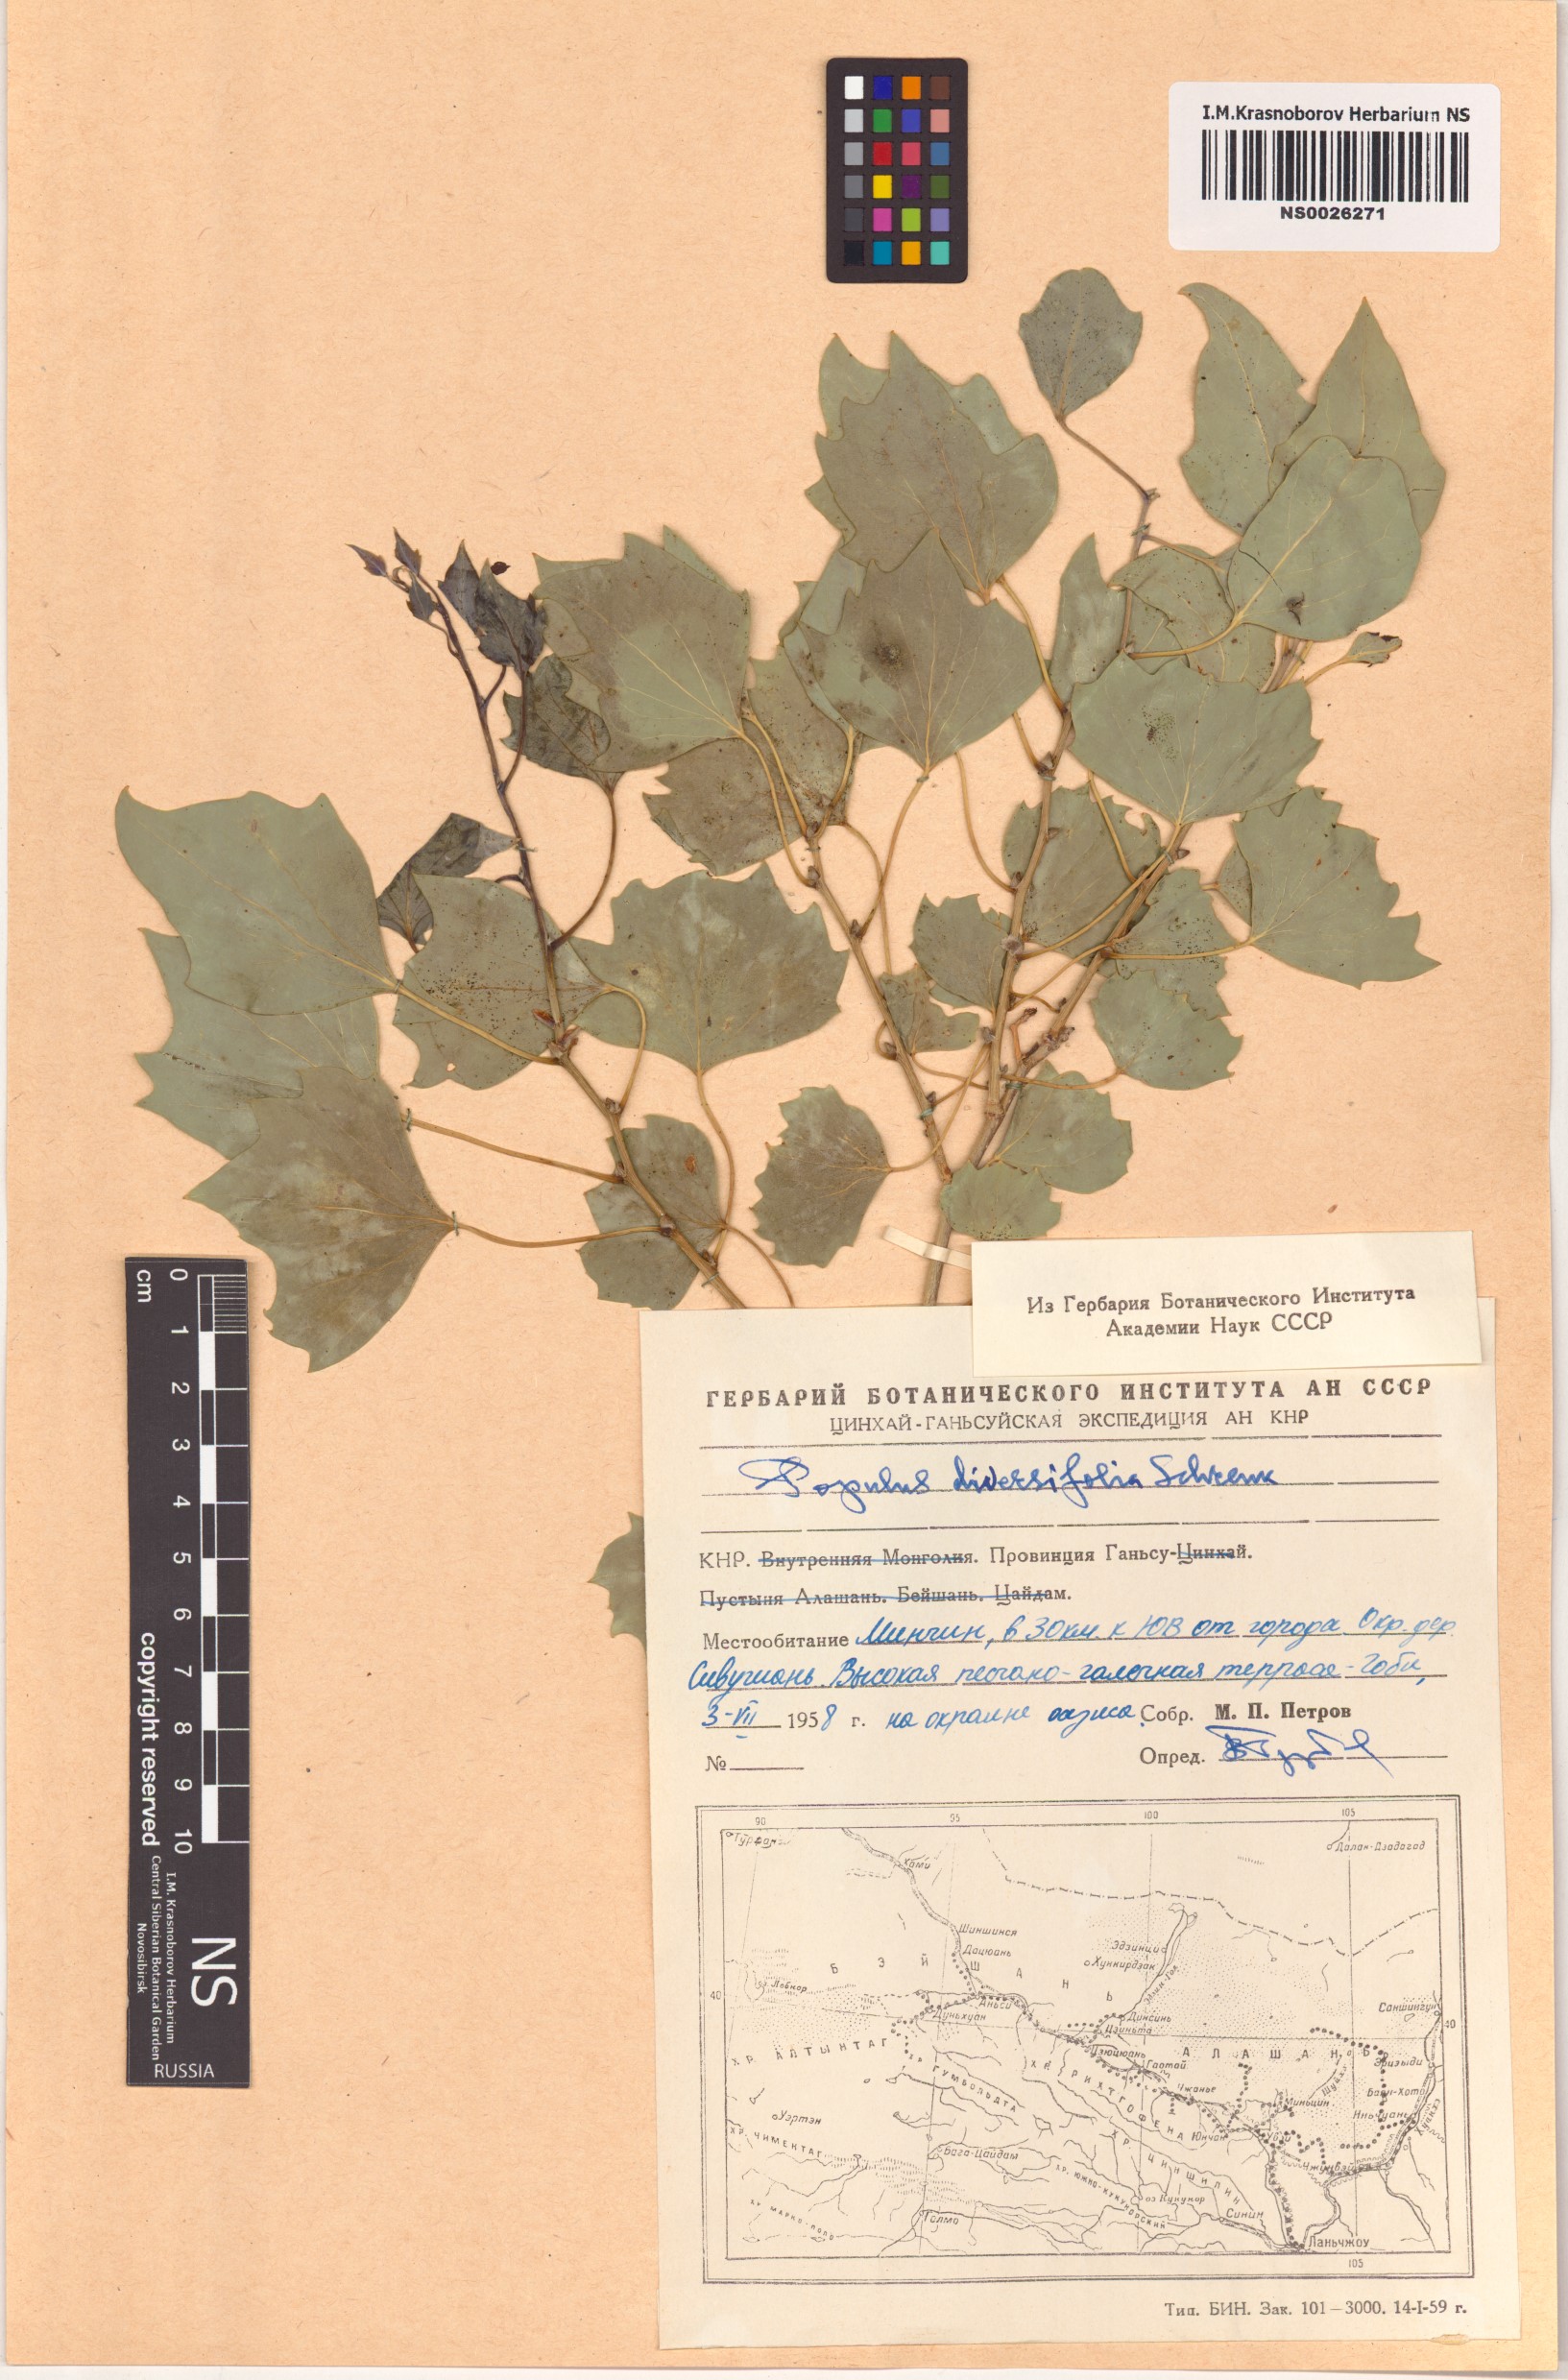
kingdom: Plantae
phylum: Tracheophyta
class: Magnoliopsida
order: Malpighiales
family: Salicaceae
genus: Populus
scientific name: Populus euphratica
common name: Euphrates poplar
